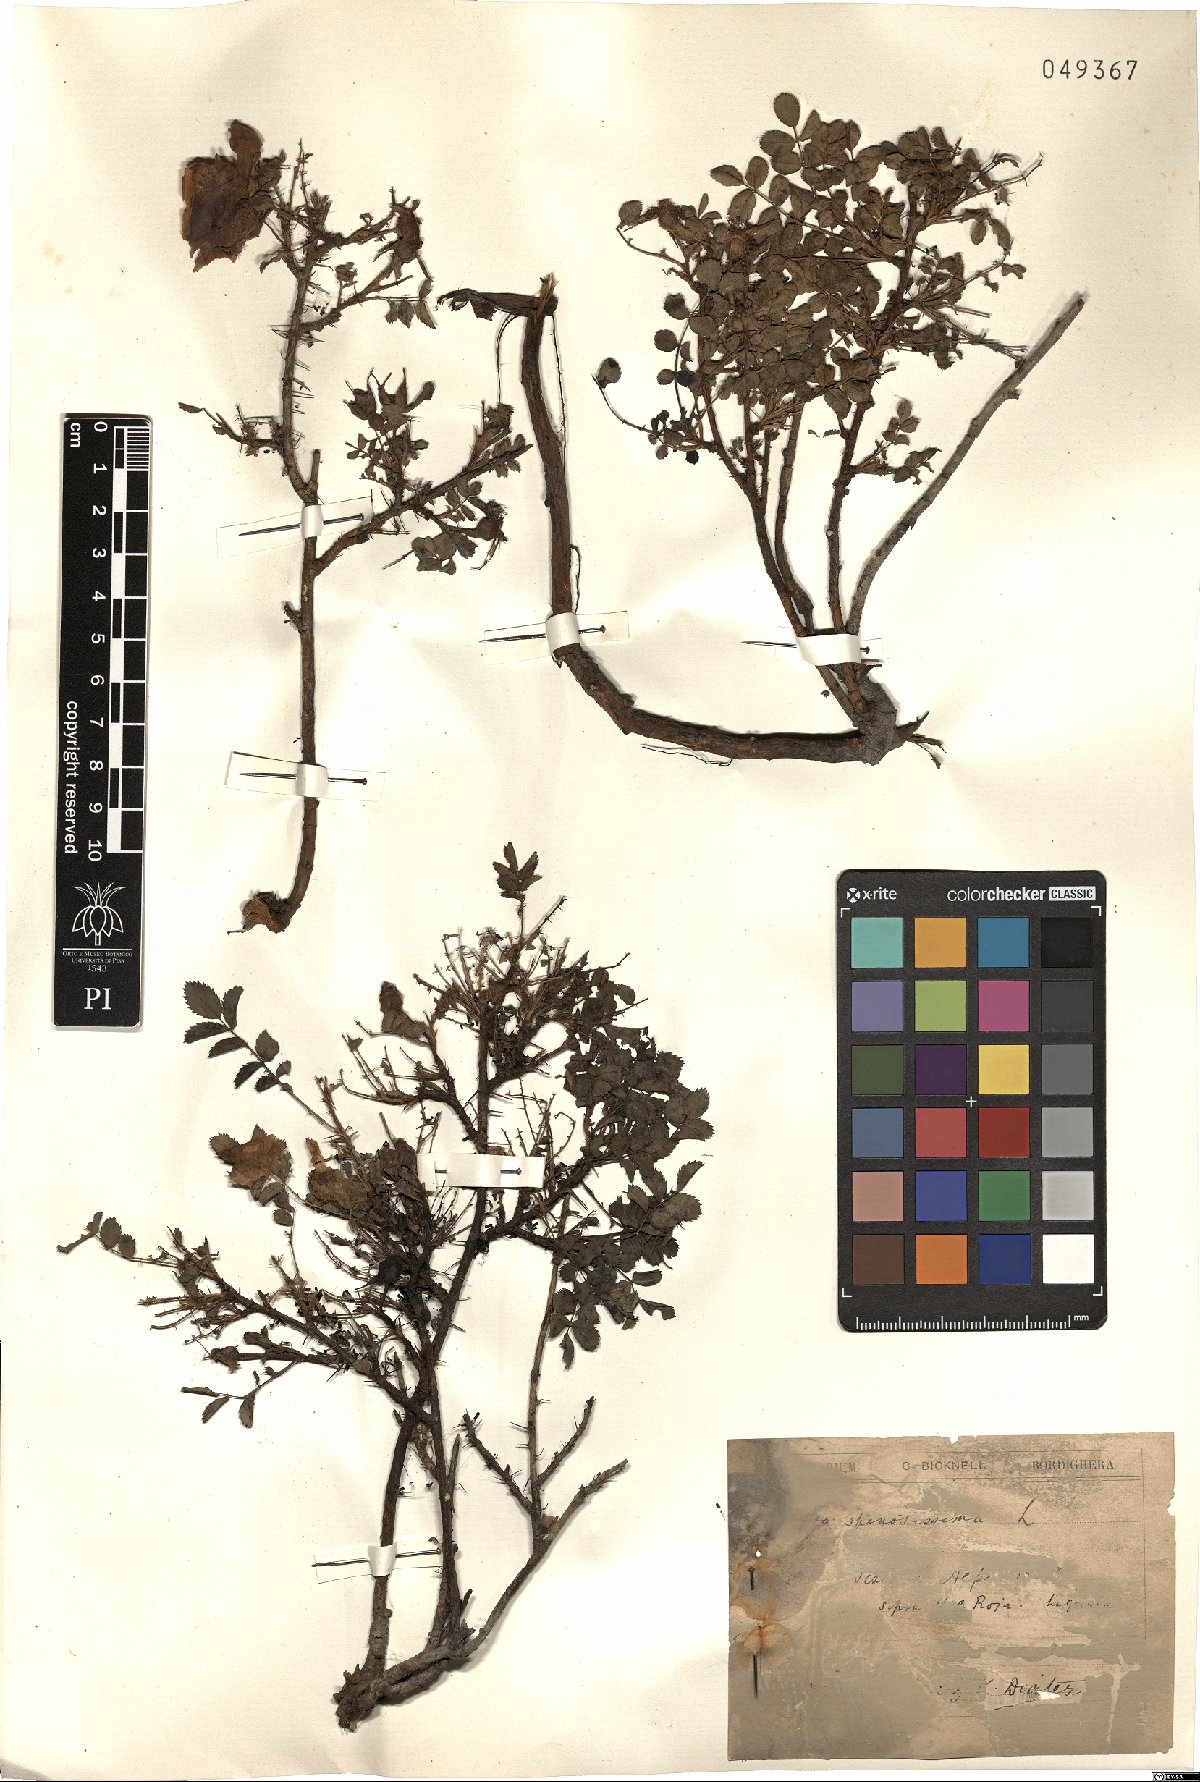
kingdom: Plantae
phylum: Tracheophyta
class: Magnoliopsida
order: Rosales
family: Rosaceae
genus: Rosa
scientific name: Rosa spinosissima
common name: Burnet rose
